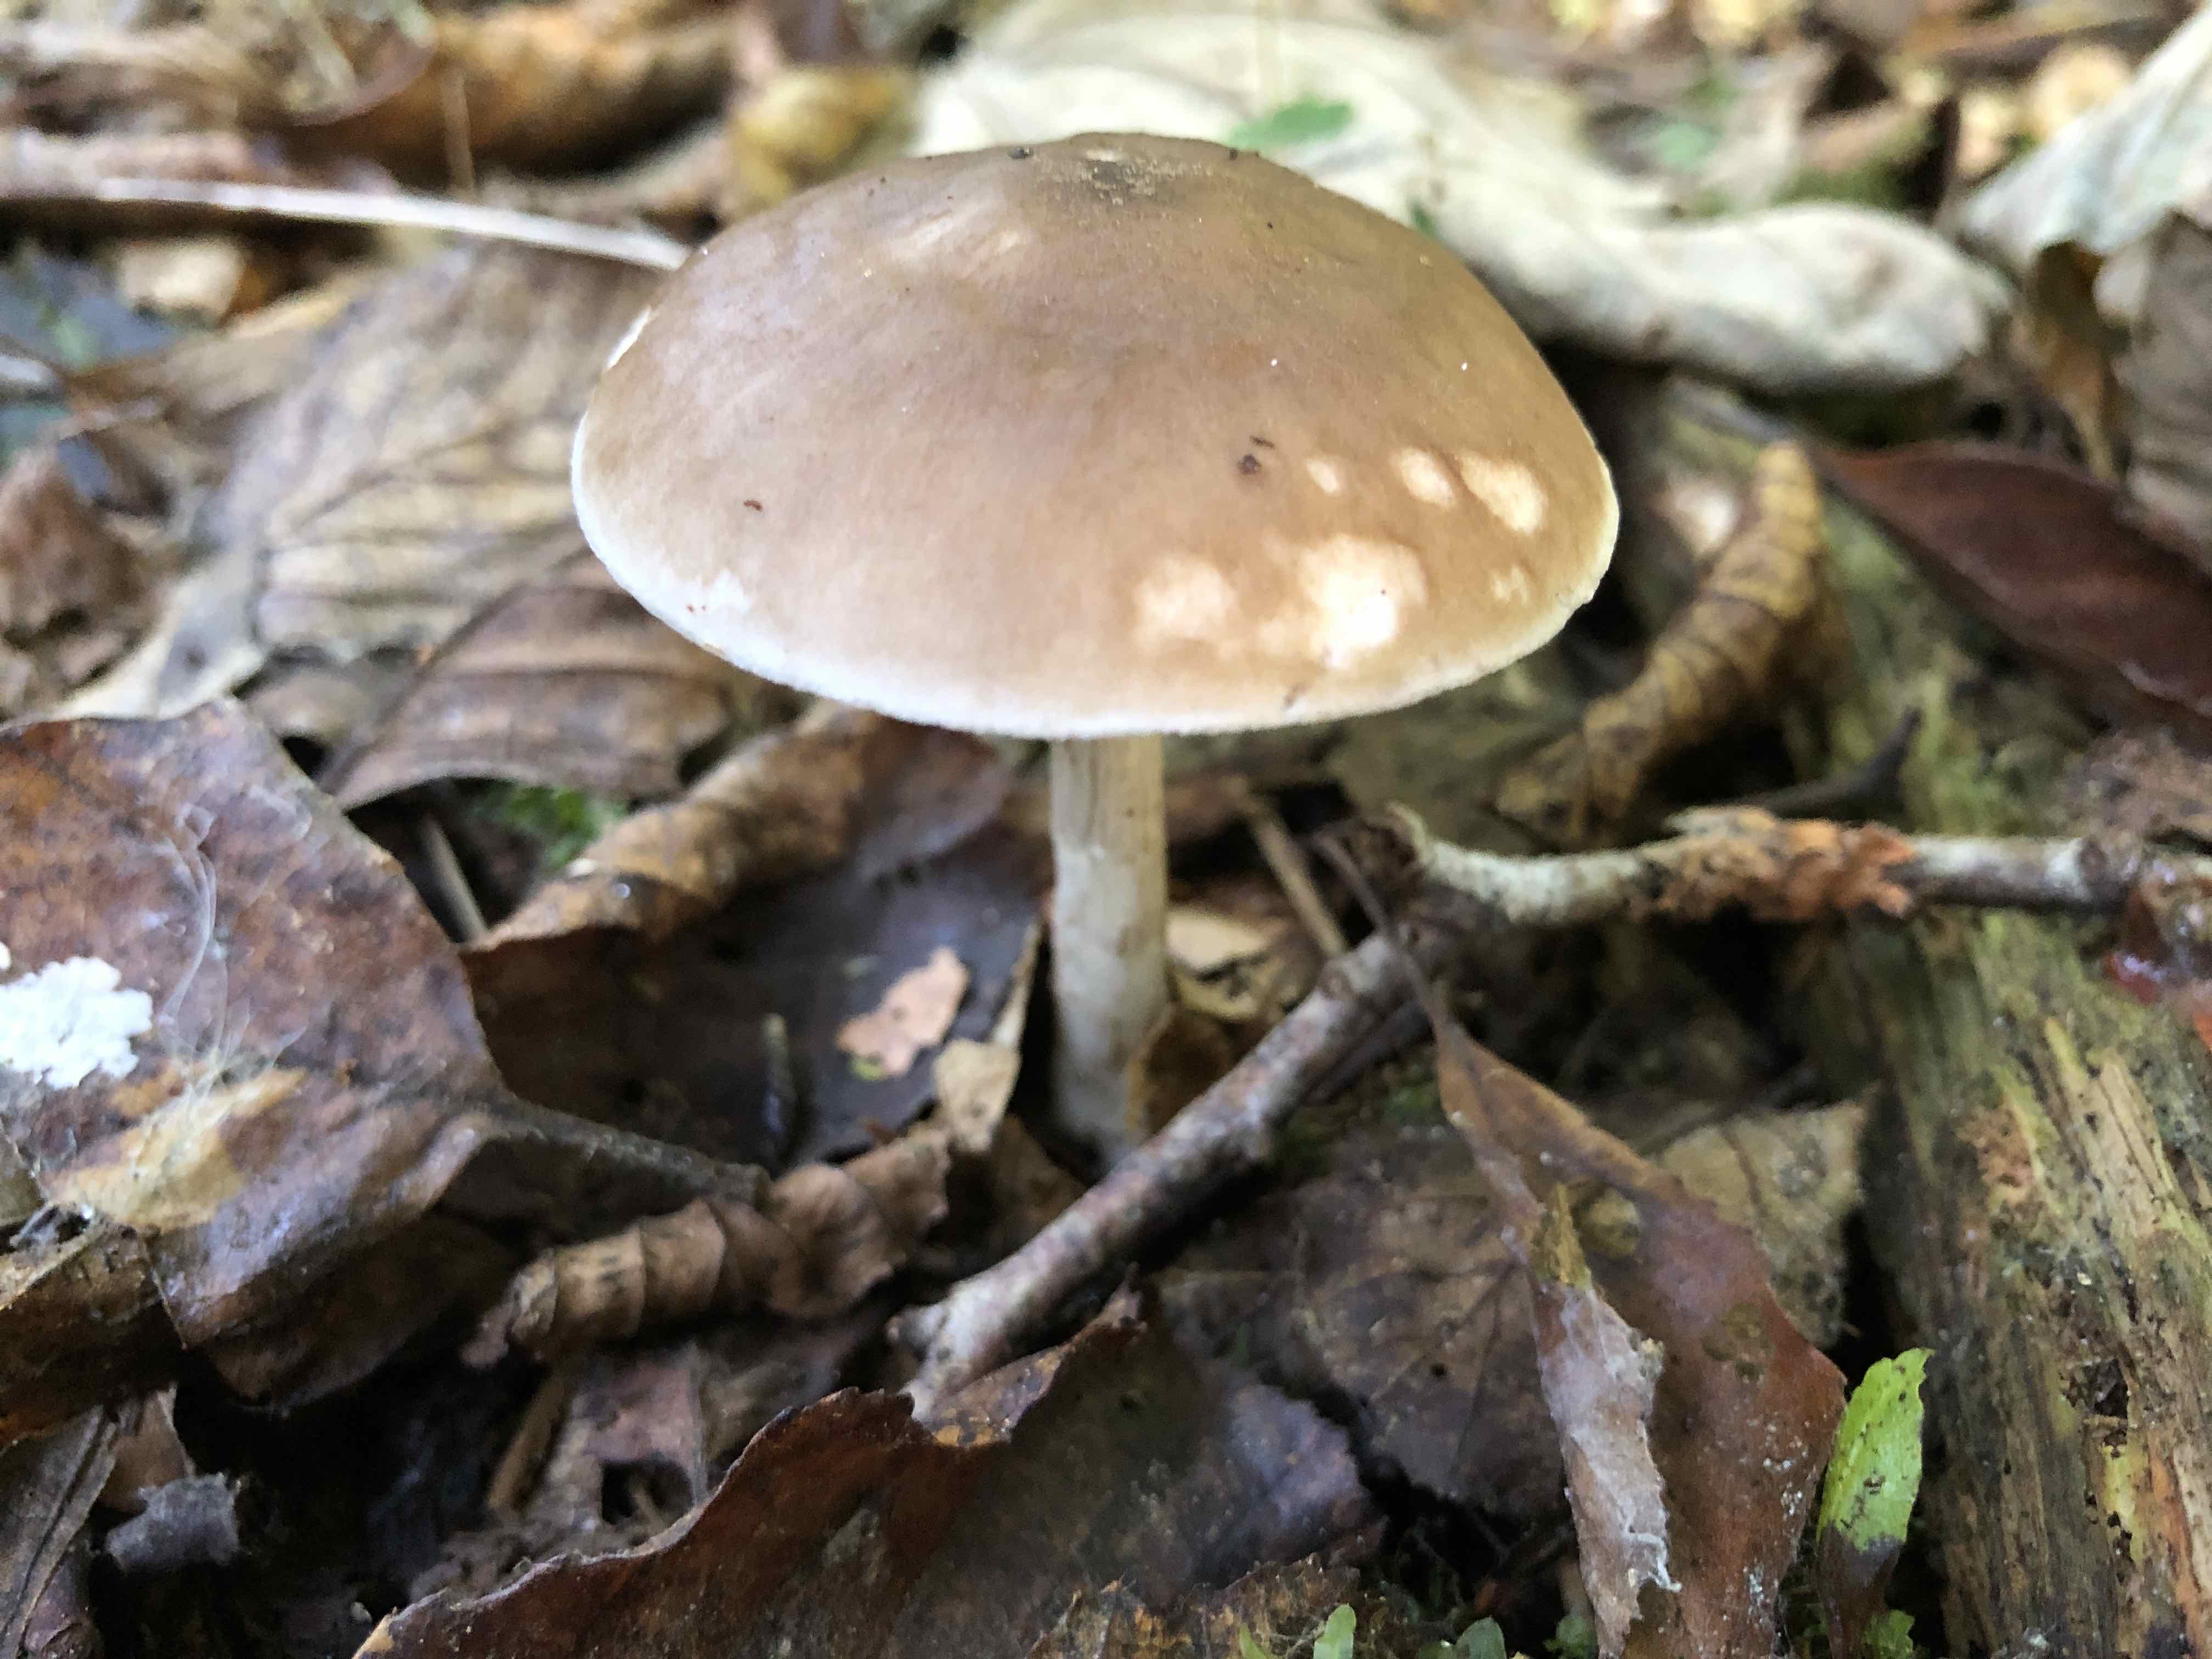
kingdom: Fungi
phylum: Basidiomycota
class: Agaricomycetes
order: Agaricales
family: Pluteaceae
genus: Pluteus
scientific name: Pluteus cervinus
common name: sodfarvet skærmhat
